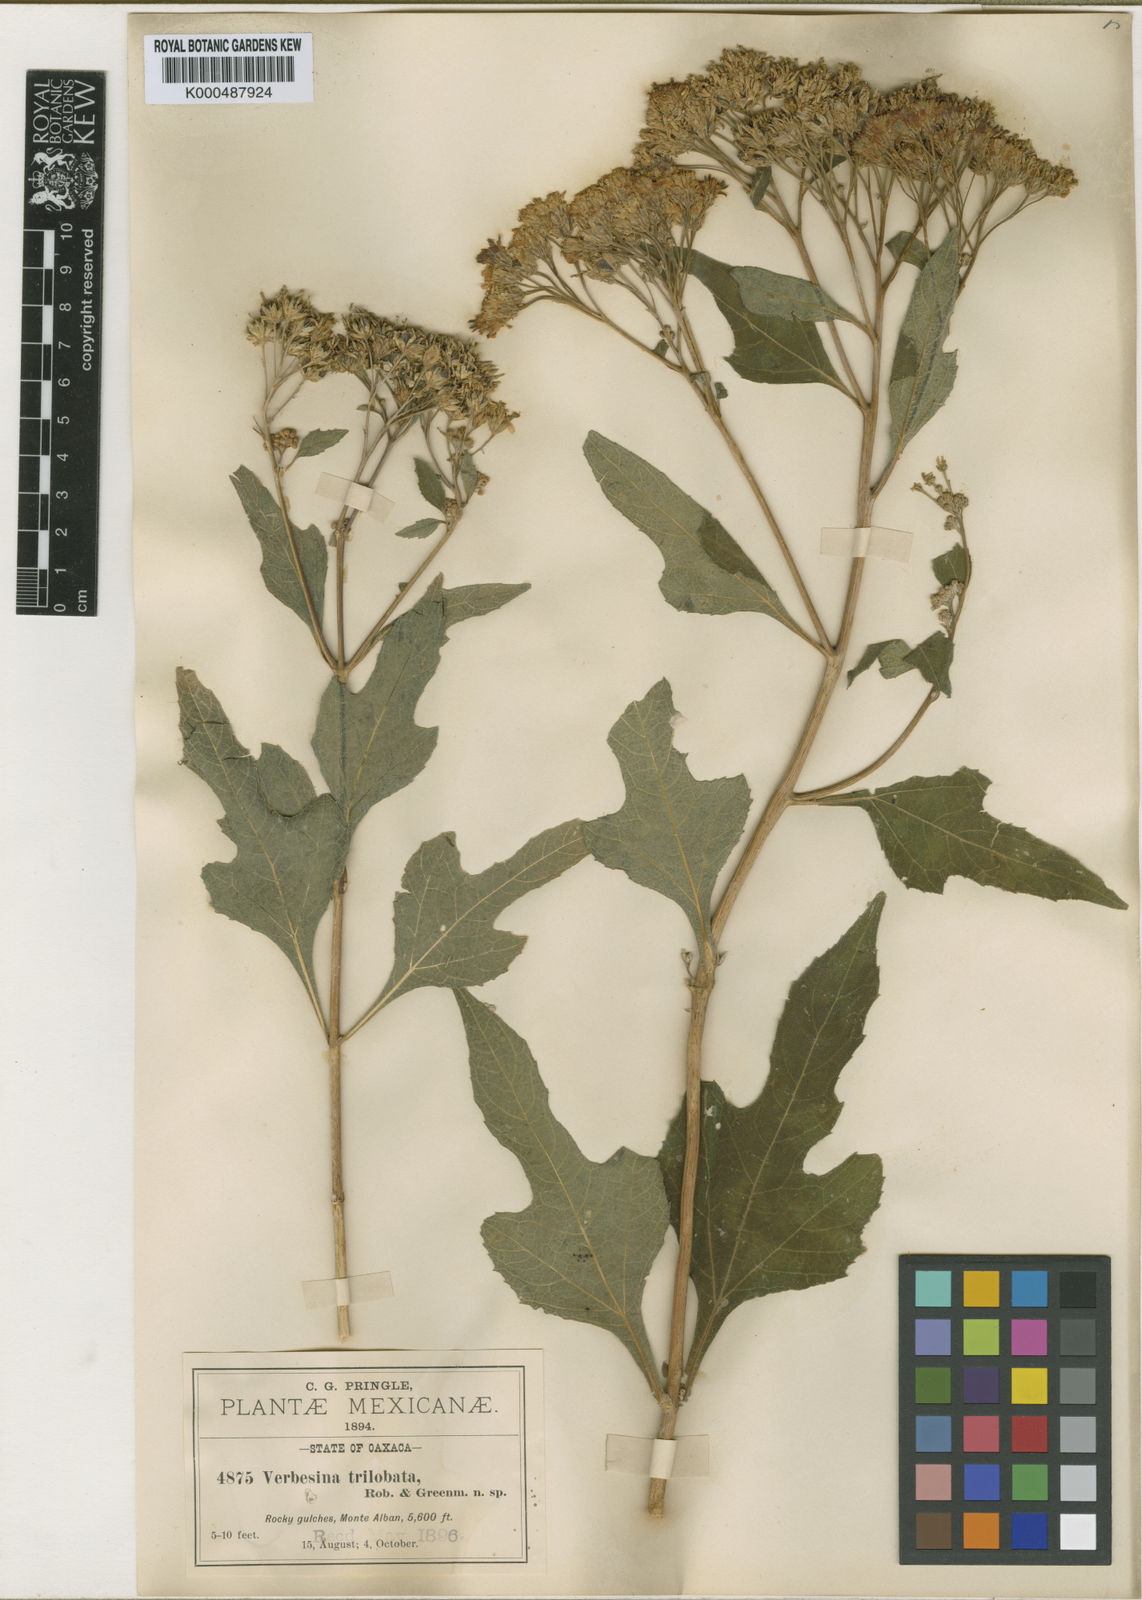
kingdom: Plantae
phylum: Tracheophyta
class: Magnoliopsida
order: Asterales
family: Asteraceae
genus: Verbesina
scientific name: Verbesina trilobata
